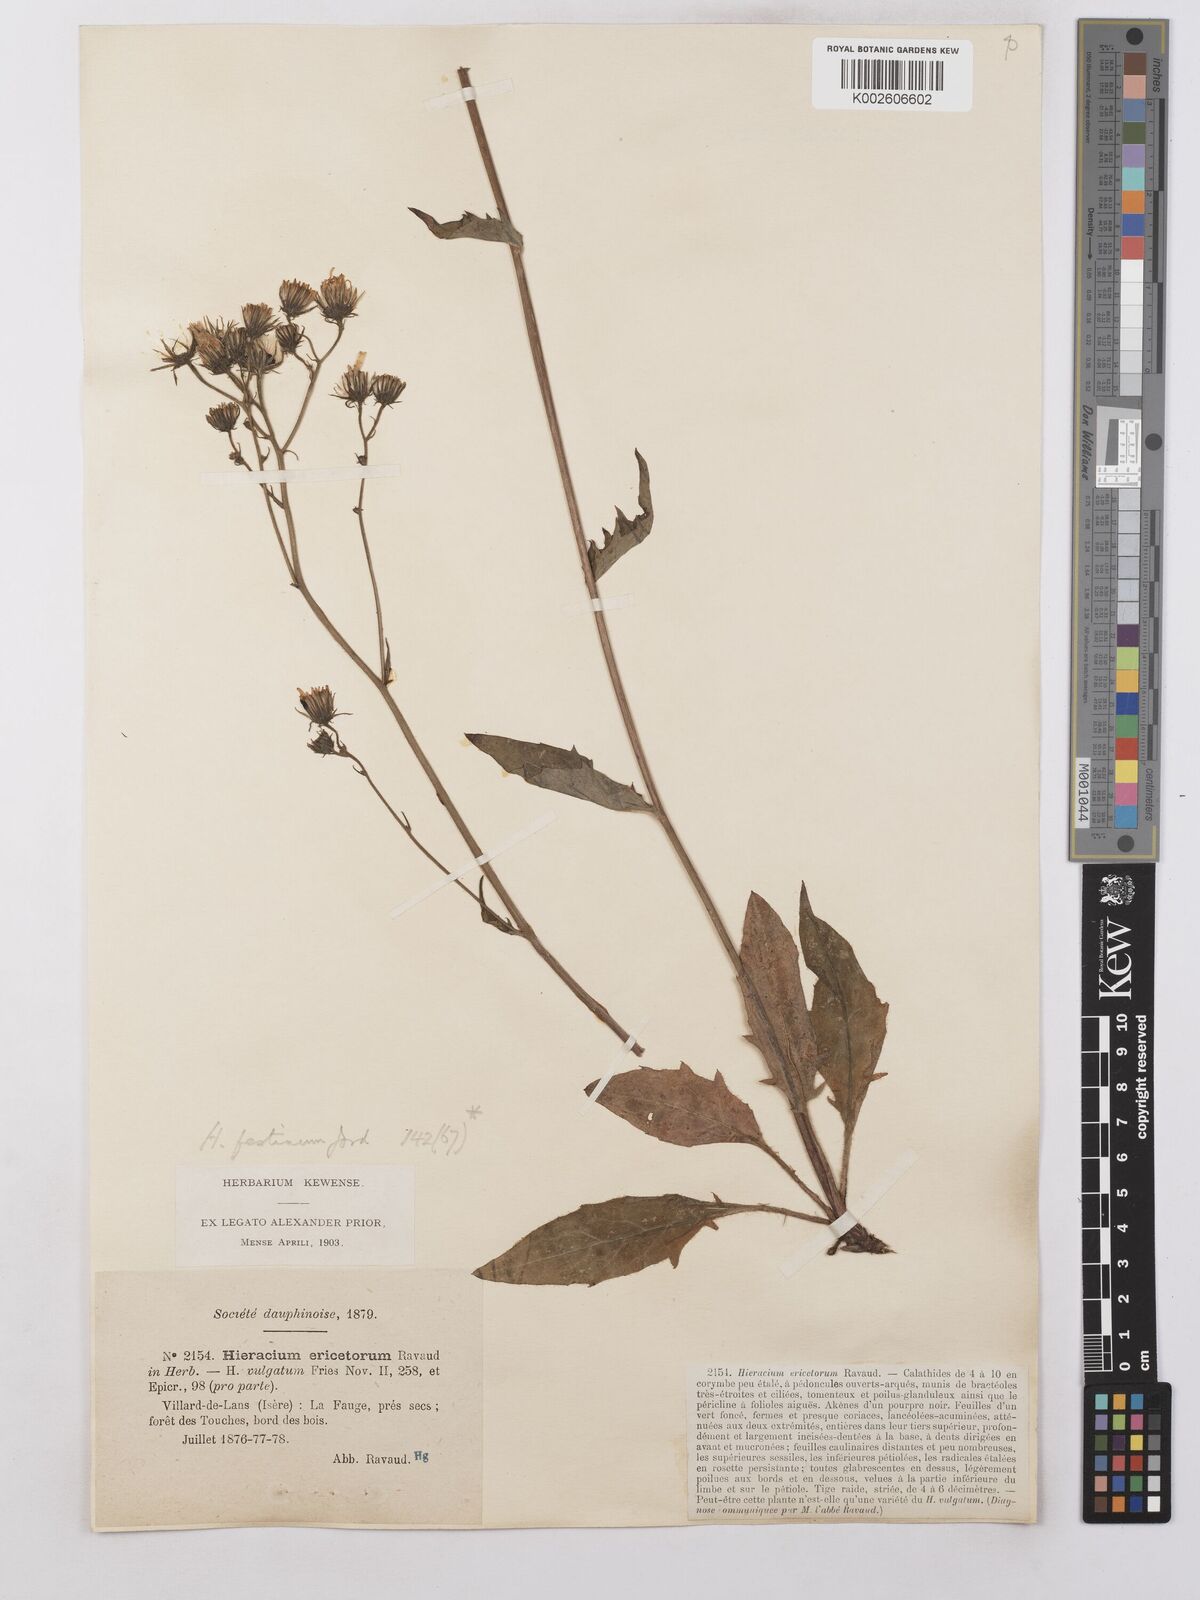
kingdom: Plantae
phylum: Tracheophyta
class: Magnoliopsida
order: Asterales
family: Asteraceae
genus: Hieracium
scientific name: Hieracium lachenalii
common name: Common hawkweed
